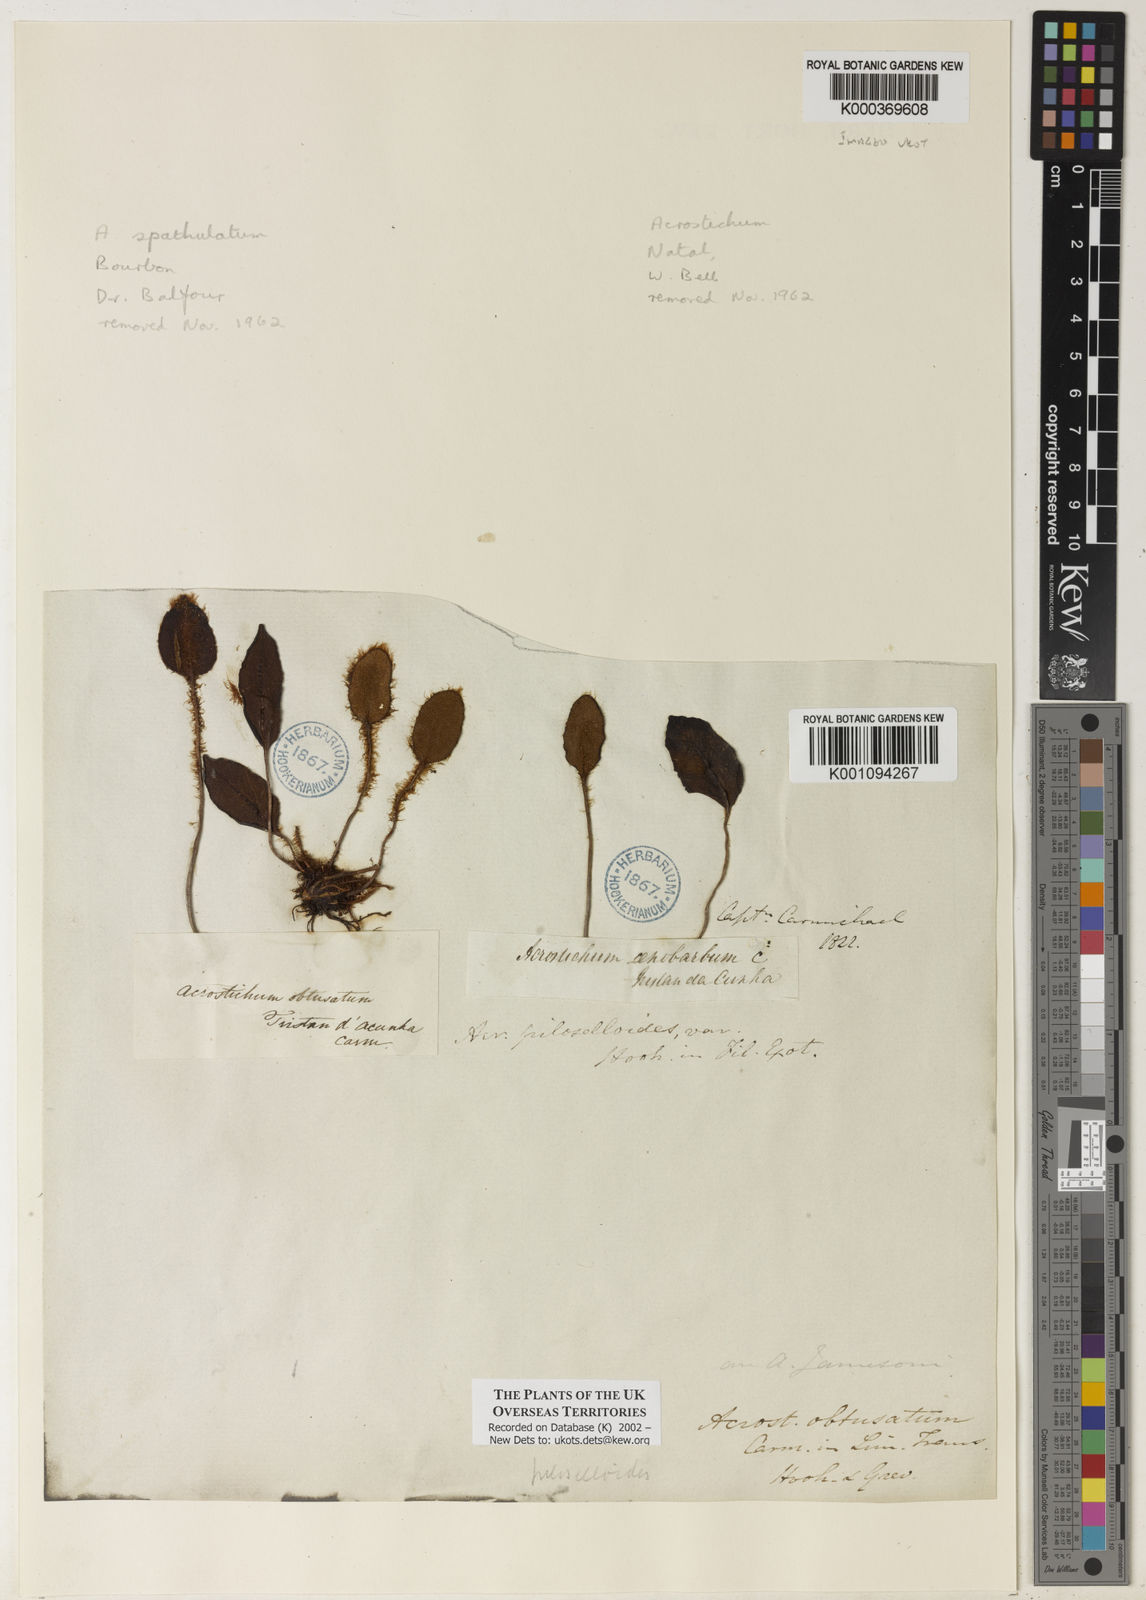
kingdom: Plantae
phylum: Tracheophyta
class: Polypodiopsida
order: Polypodiales
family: Dryopteridaceae
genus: Elaphoglossum
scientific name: Elaphoglossum obtusatum
